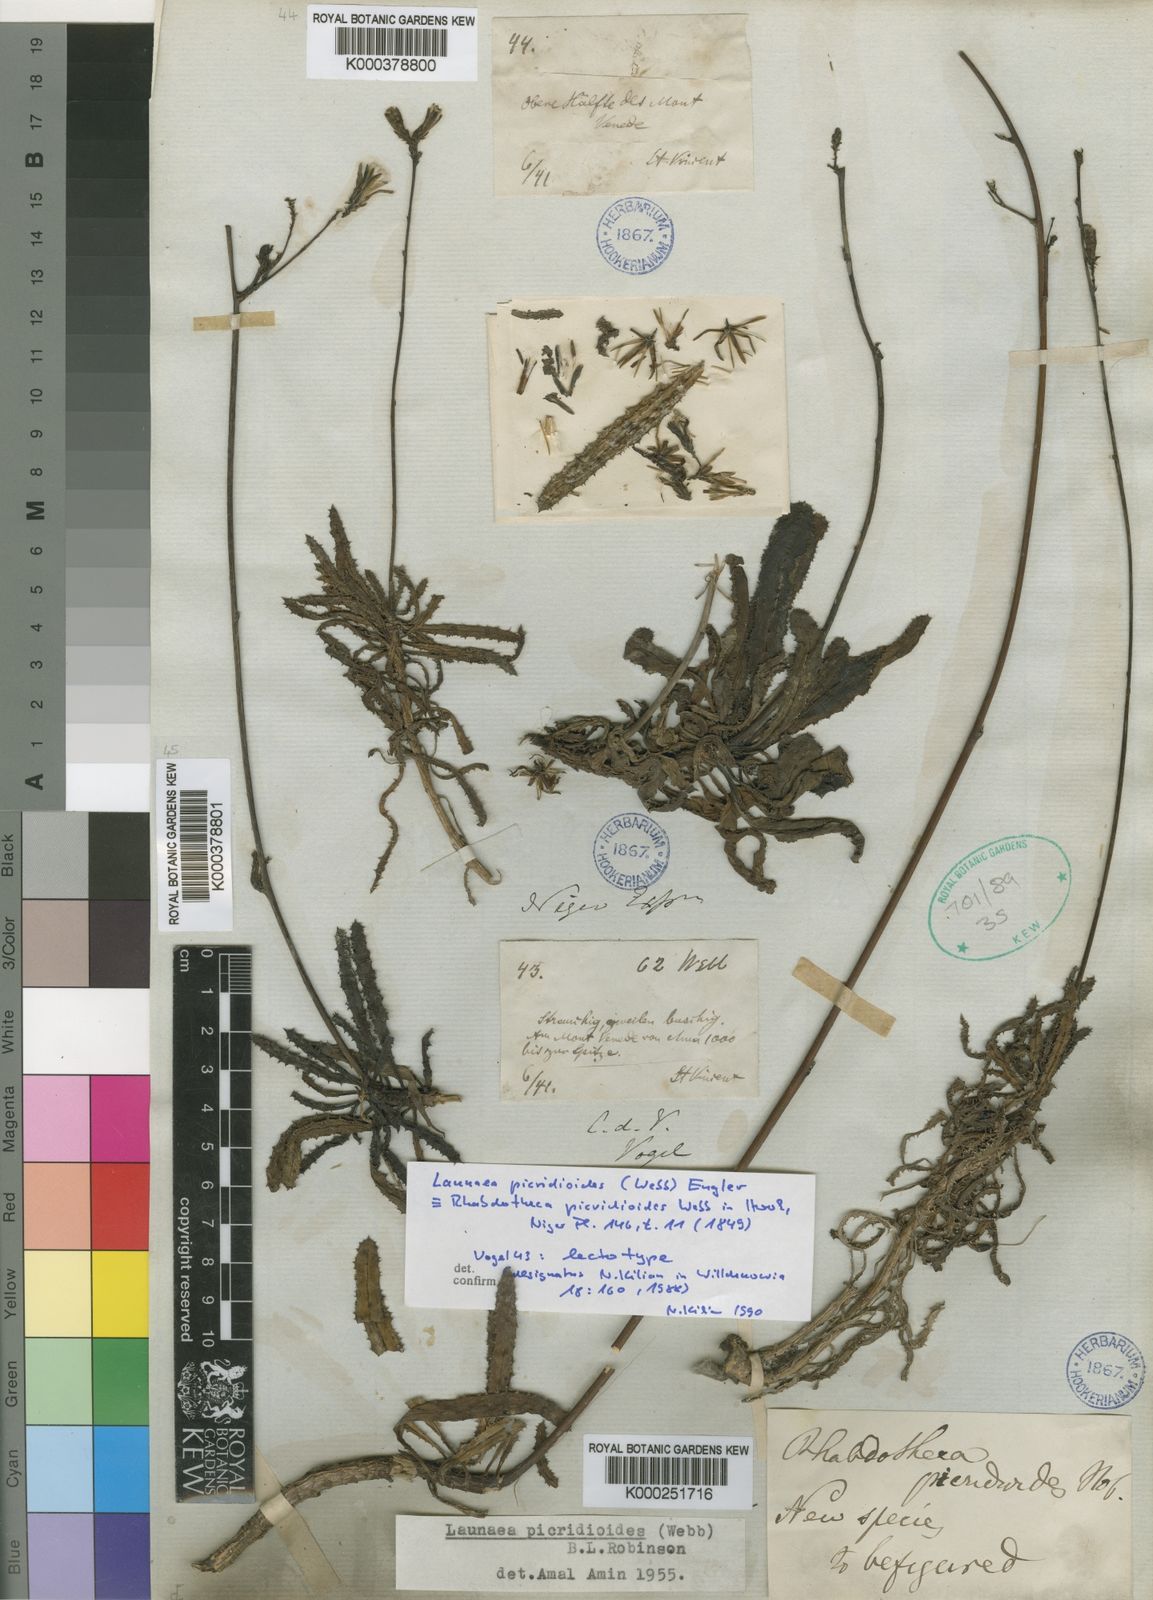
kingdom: Plantae
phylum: Tracheophyta
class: Magnoliopsida
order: Asterales
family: Asteraceae
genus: Launaea
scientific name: Launaea picridioides
